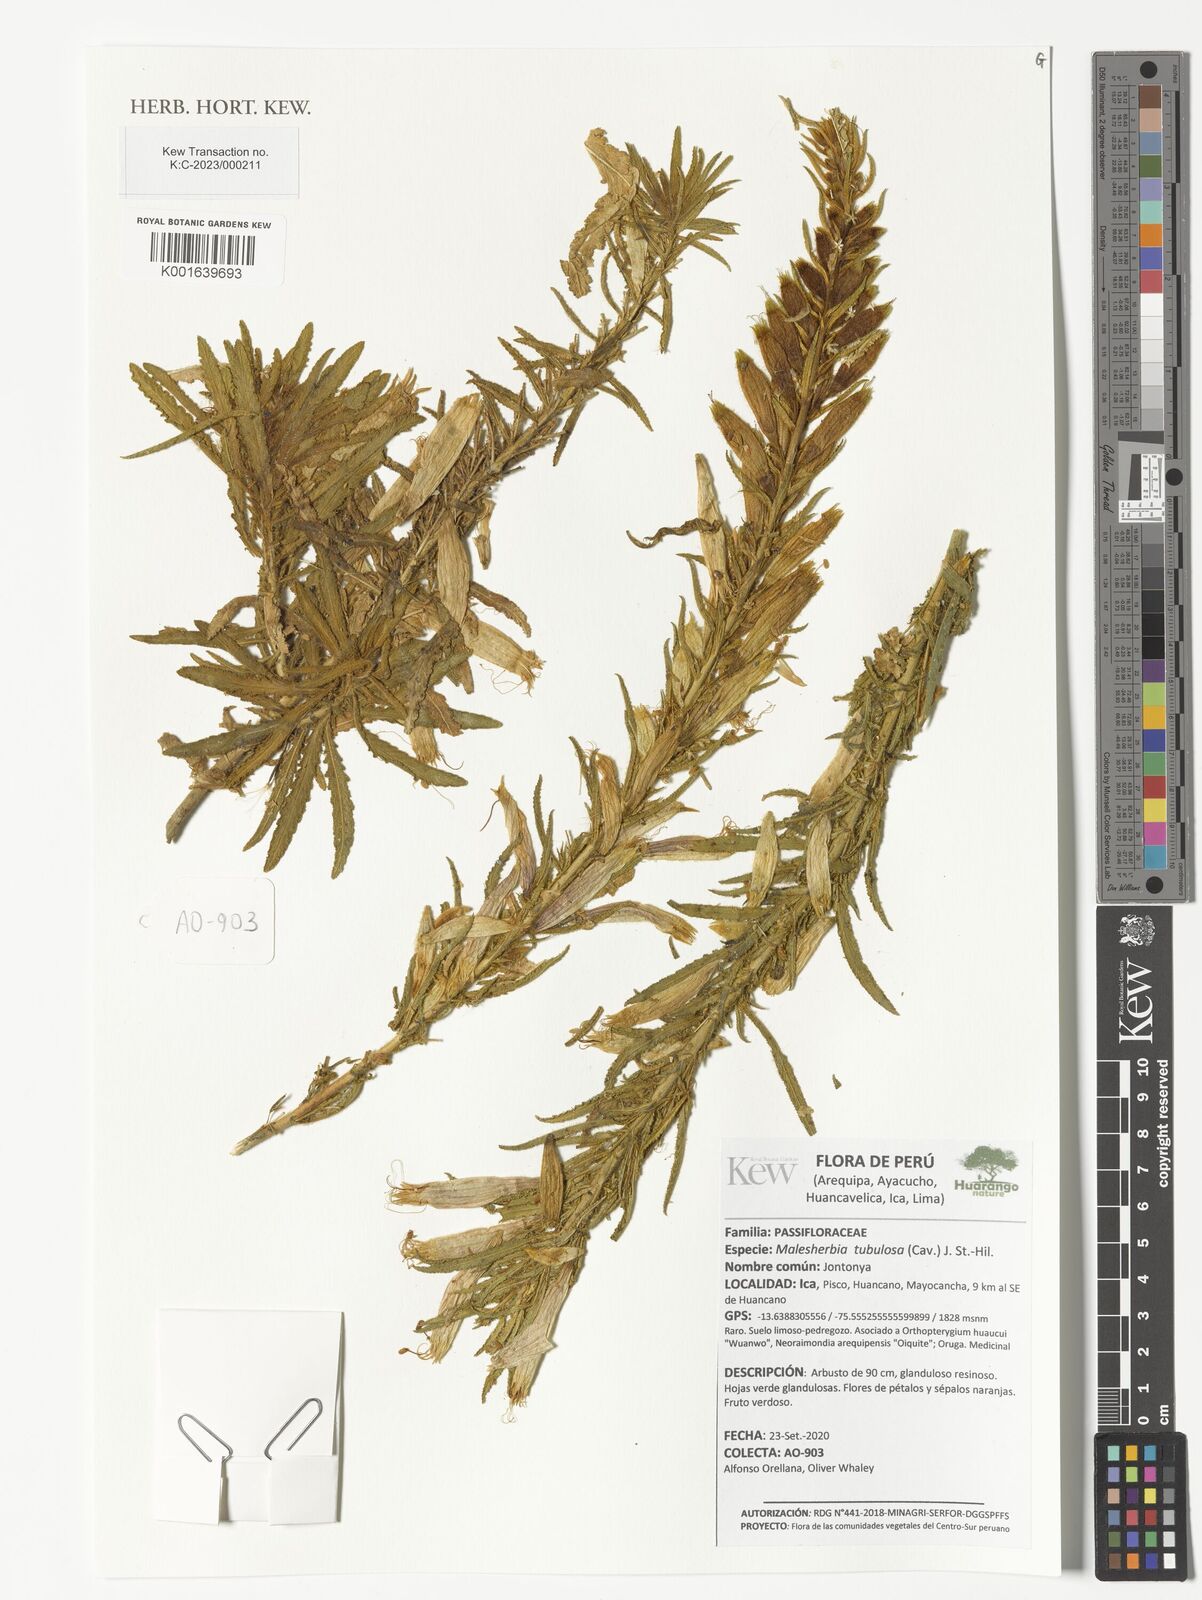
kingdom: Plantae
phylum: Tracheophyta
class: Magnoliopsida
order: Malpighiales
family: Malesherbiaceae
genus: Malesherbia
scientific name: Malesherbia tubulosa
